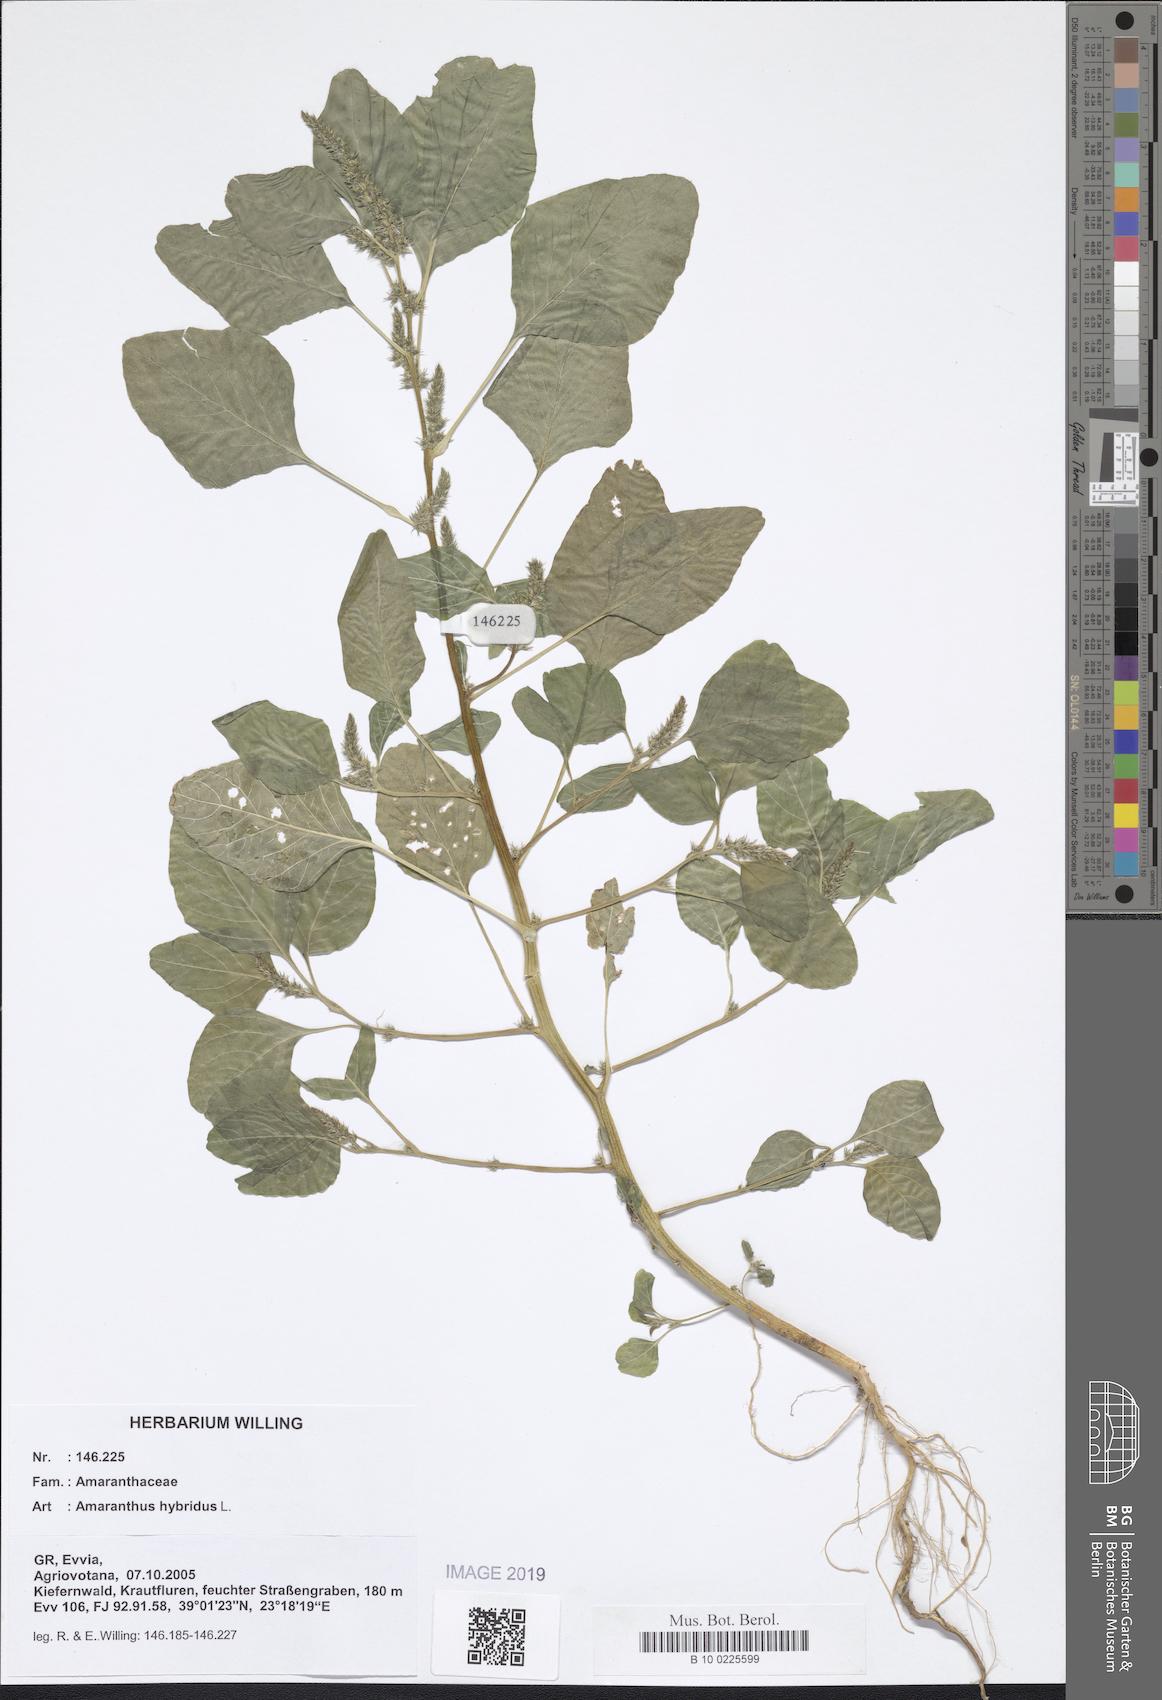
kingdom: Plantae
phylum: Tracheophyta
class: Magnoliopsida
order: Caryophyllales
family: Amaranthaceae
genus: Amaranthus
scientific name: Amaranthus hybridus
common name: Green amaranth
